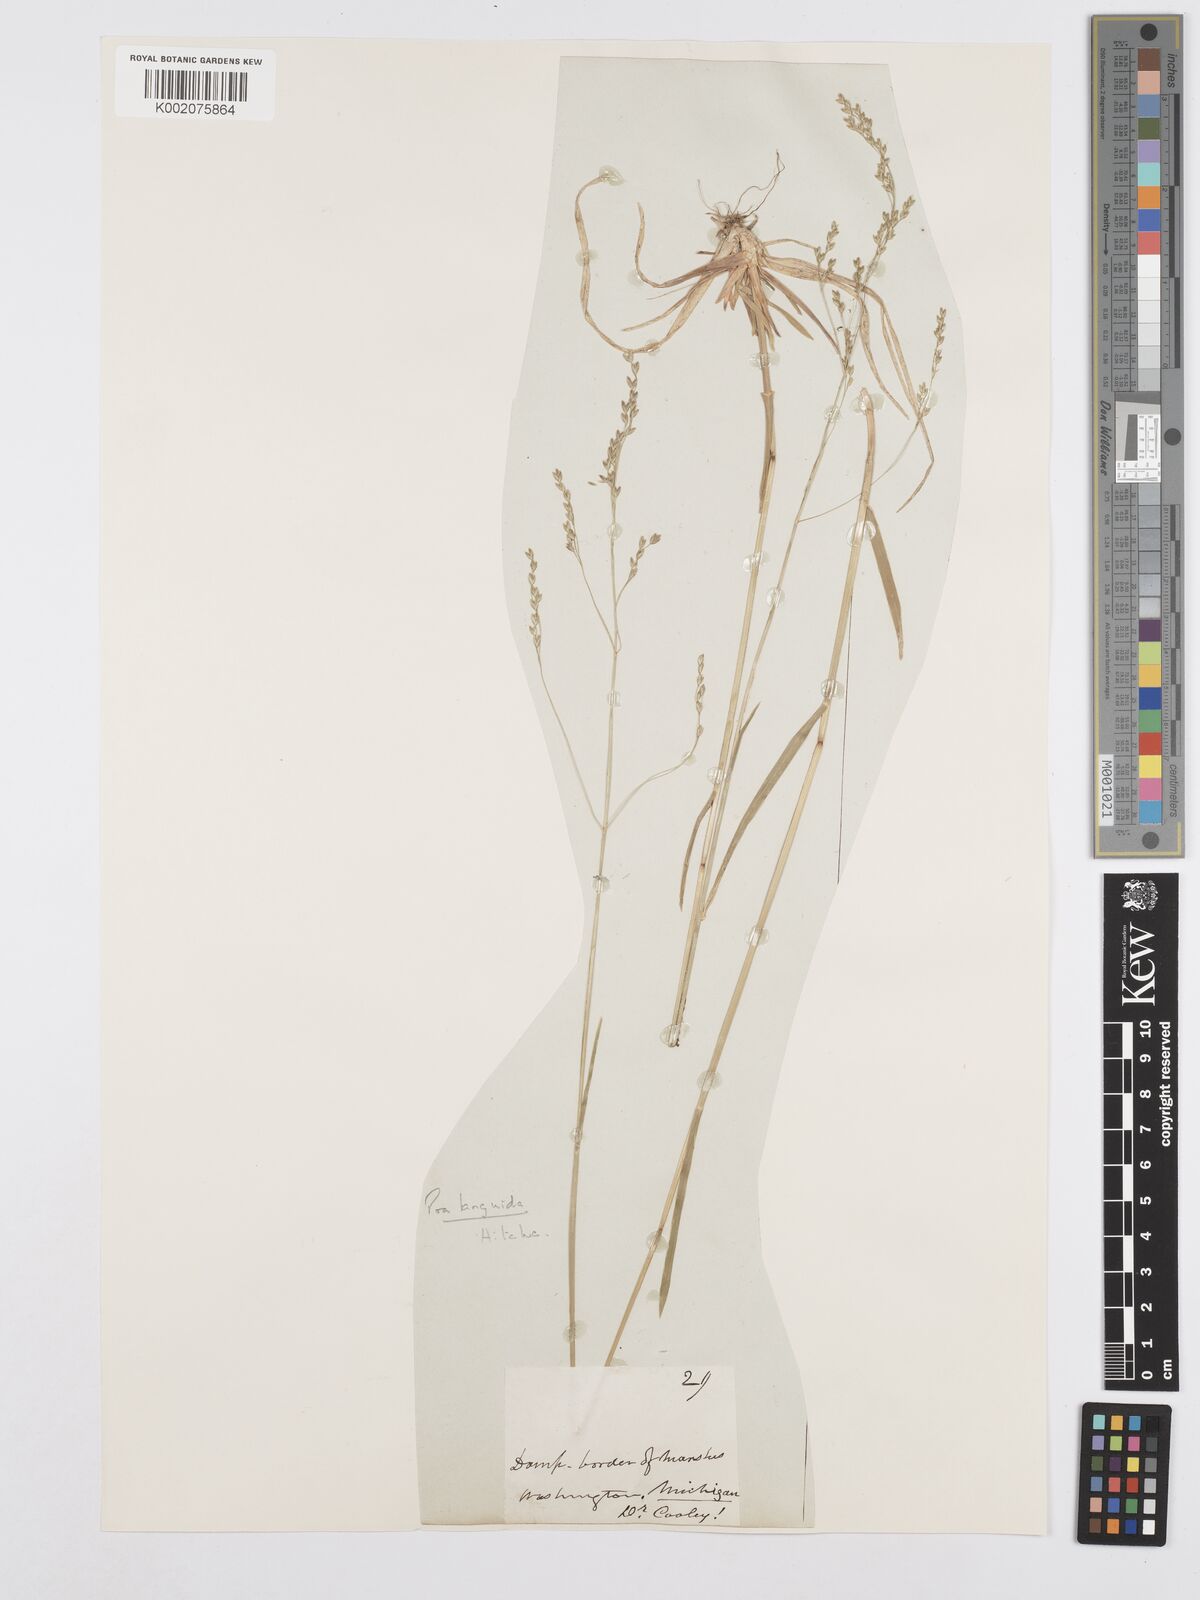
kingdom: Plantae
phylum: Tracheophyta
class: Liliopsida
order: Poales
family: Poaceae
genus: Poa
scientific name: Poa saltuensis
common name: Bushy pasture speargrass
